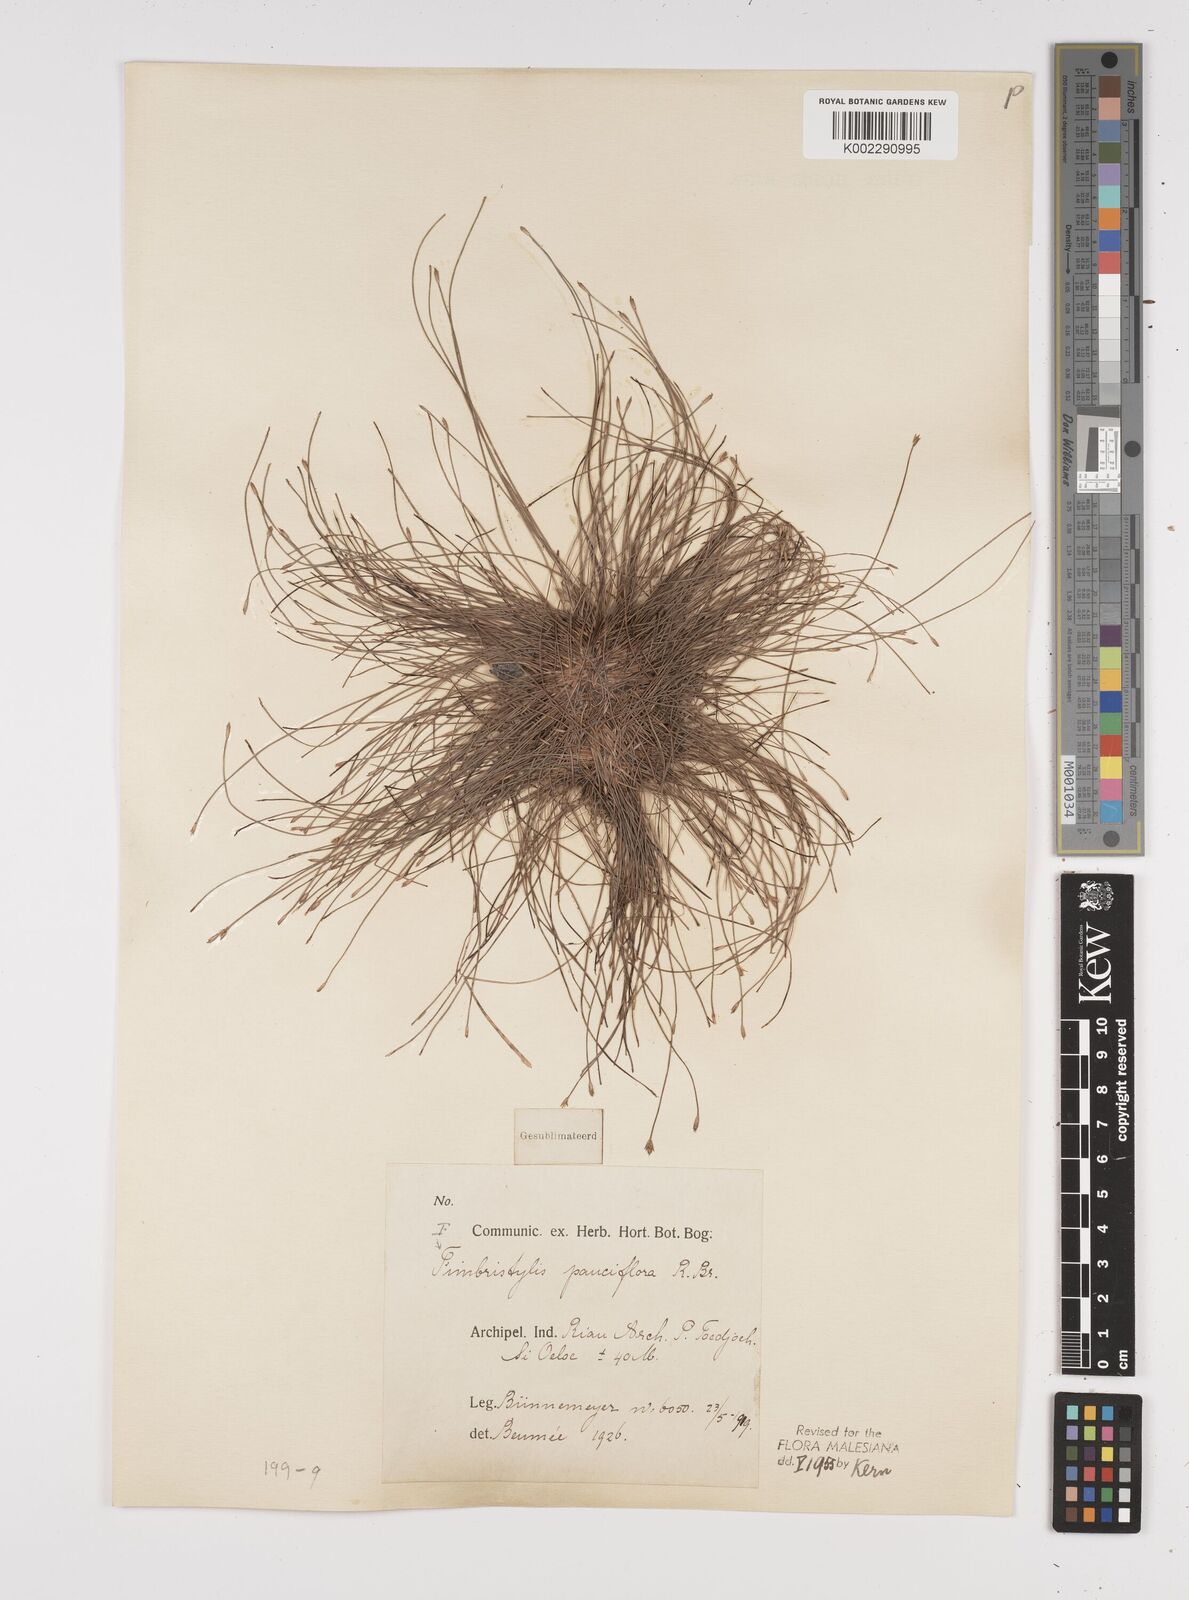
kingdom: Plantae
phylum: Tracheophyta
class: Liliopsida
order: Poales
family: Cyperaceae
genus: Fimbristylis
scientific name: Fimbristylis pauciflora
